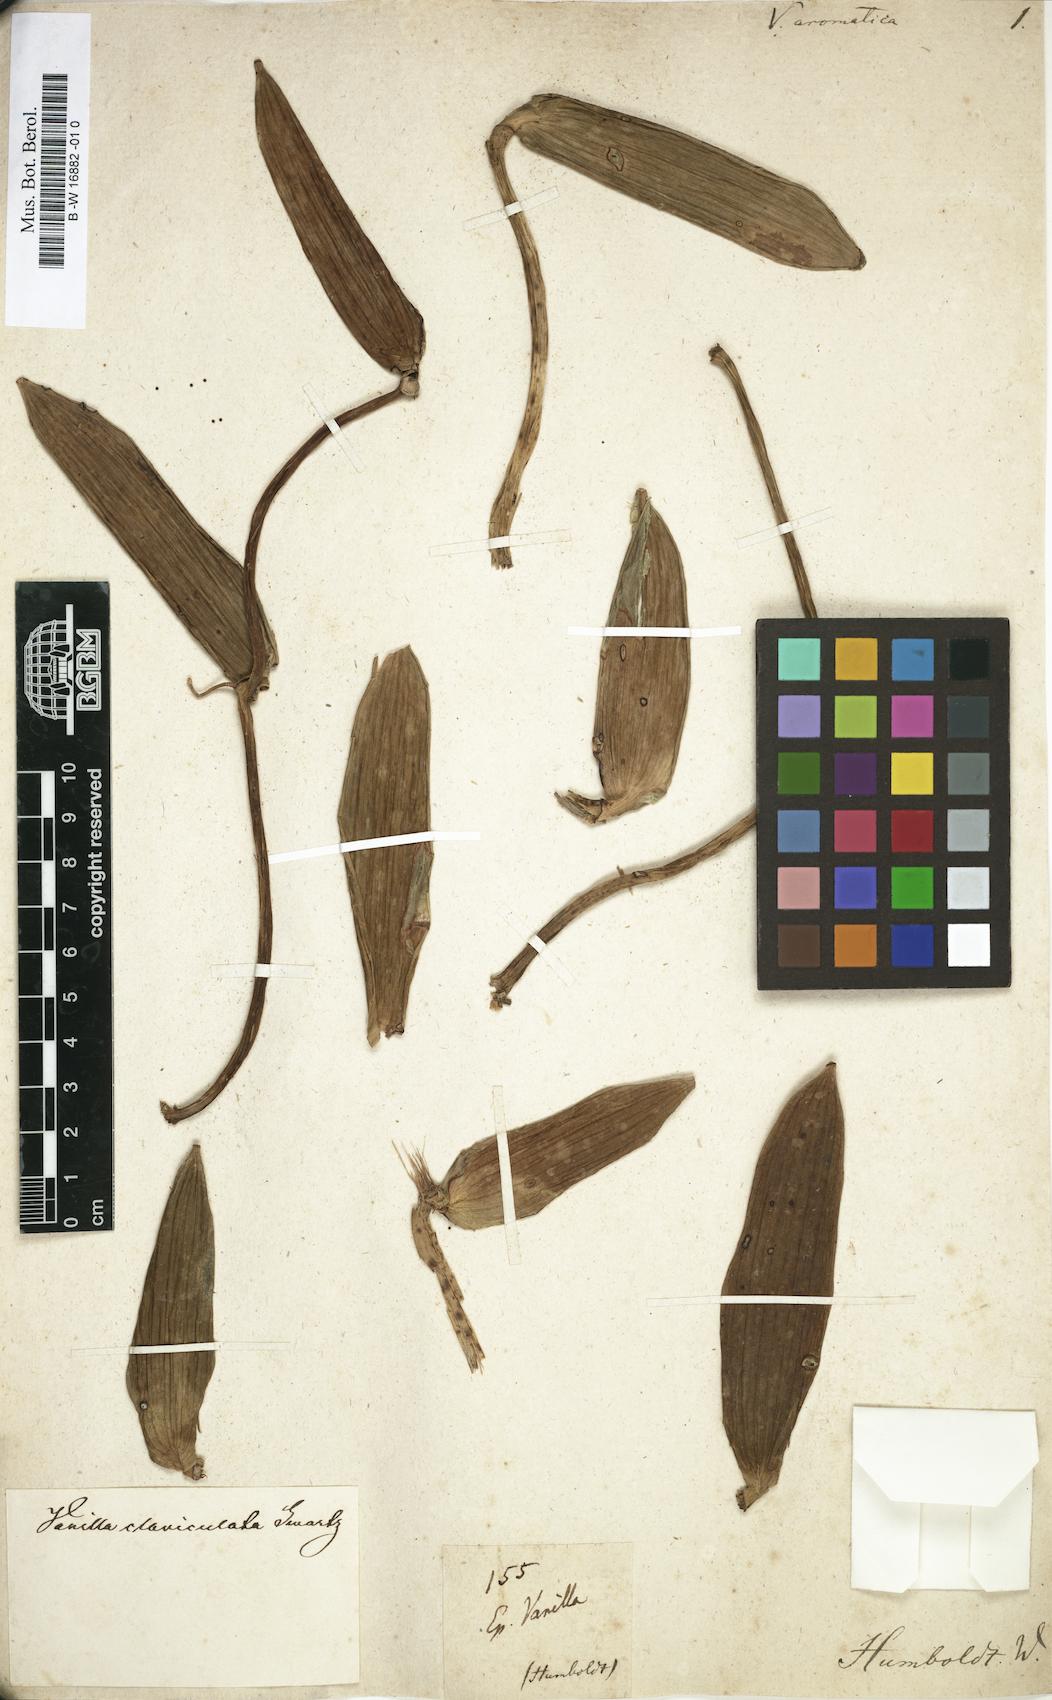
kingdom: Plantae
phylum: Tracheophyta
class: Liliopsida
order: Asparagales
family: Orchidaceae
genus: Vanilla
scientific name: Vanilla mexicana
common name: Mexican vanilla
